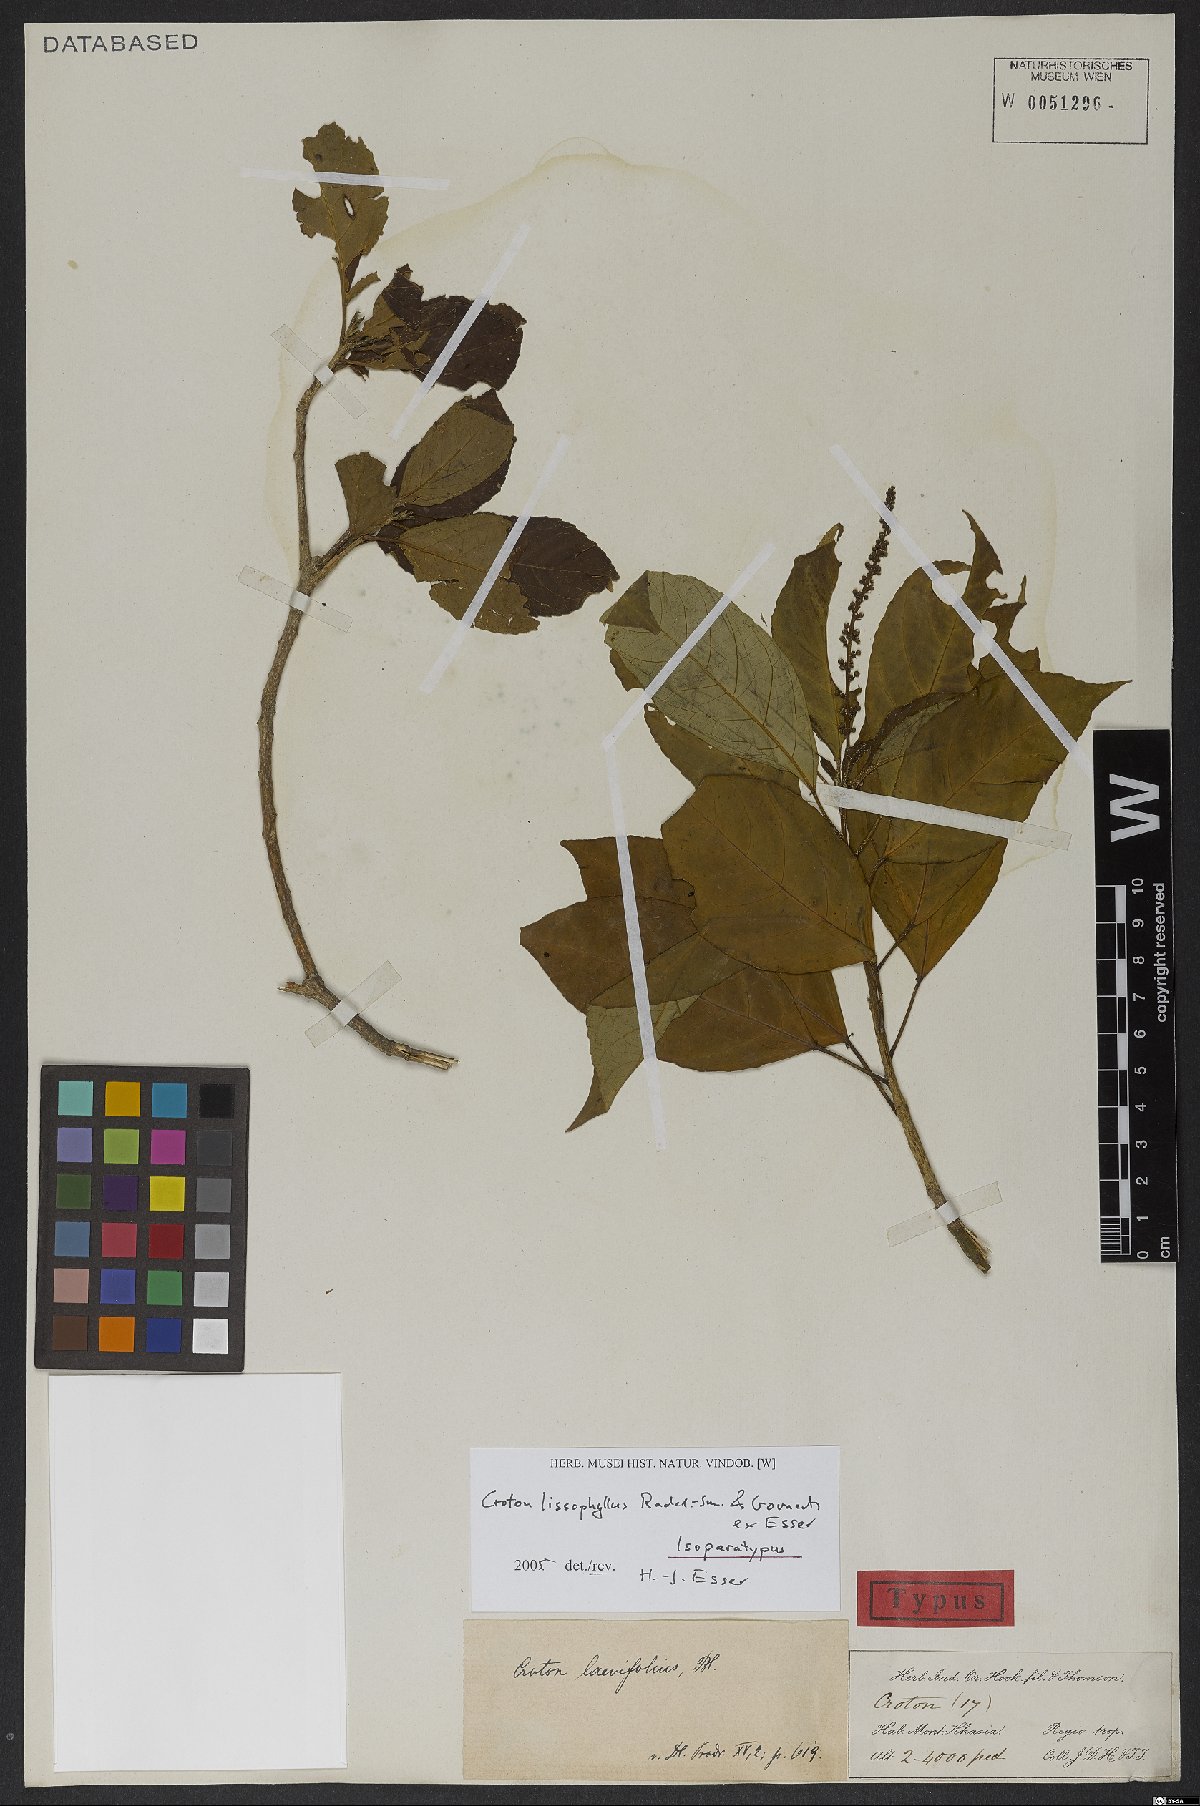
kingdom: Plantae
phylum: Tracheophyta
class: Magnoliopsida
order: Malpighiales
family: Euphorbiaceae
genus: Croton
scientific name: Croton lissophyllus
